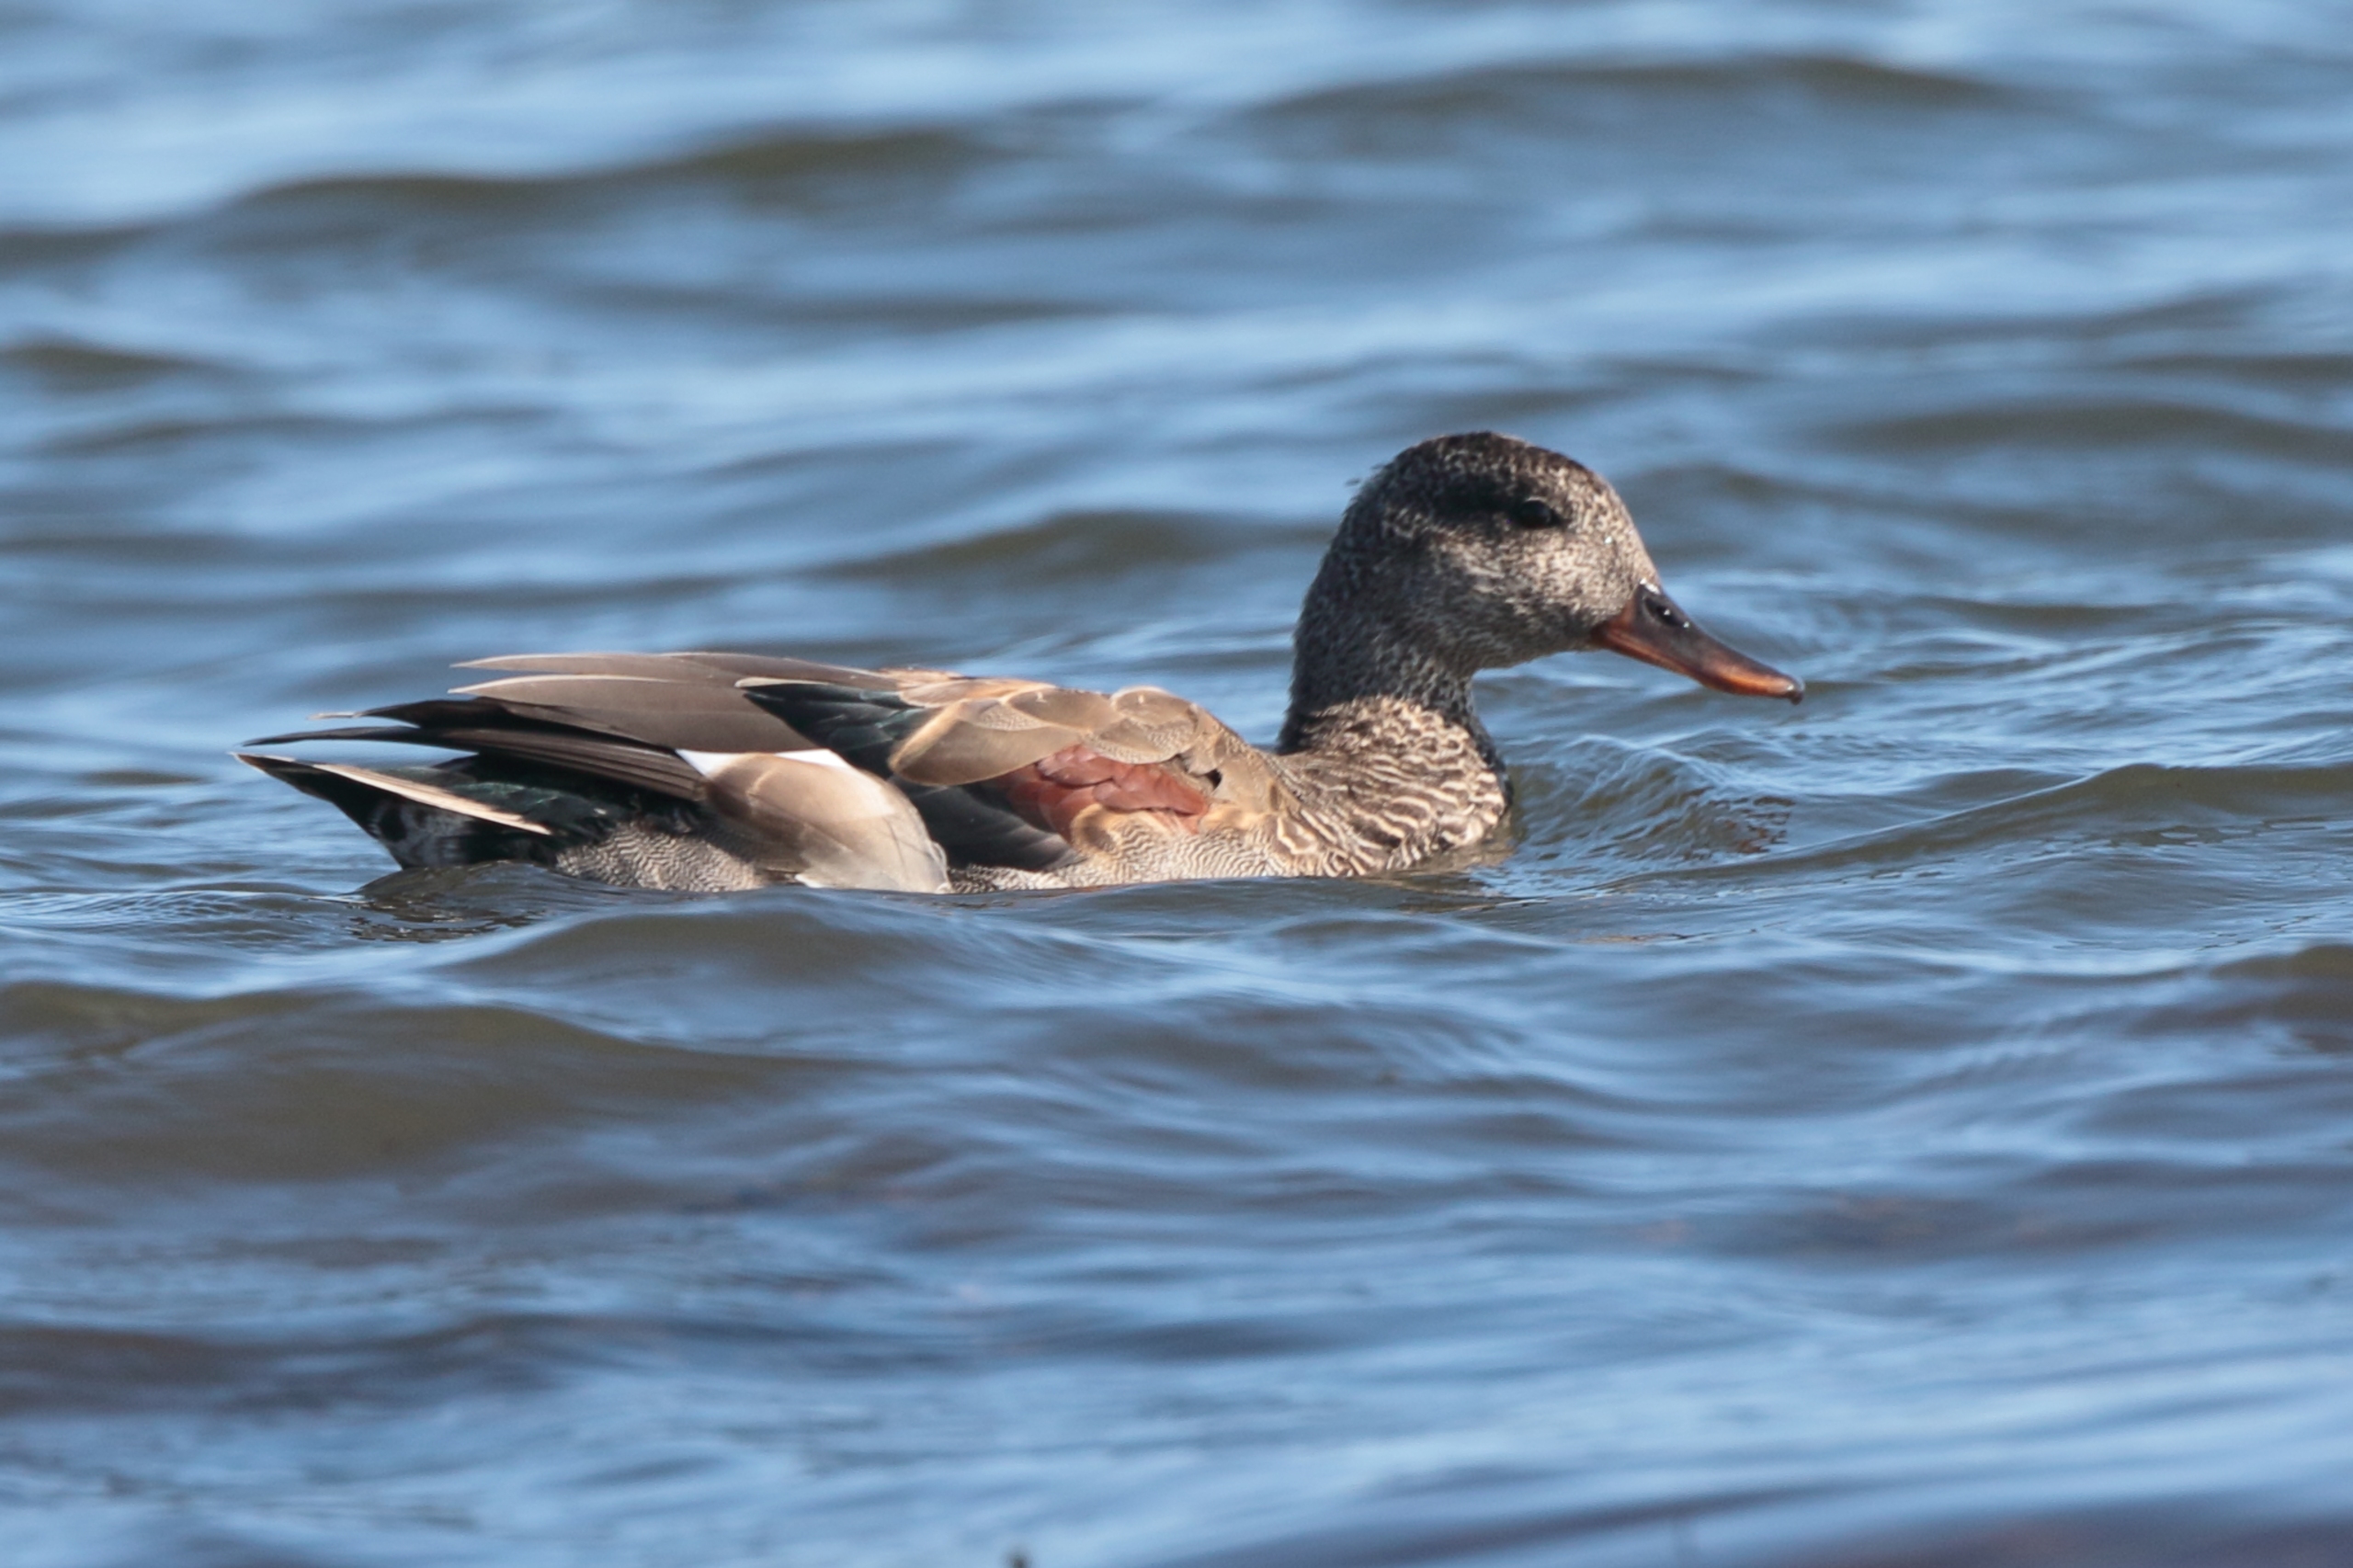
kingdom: Animalia
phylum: Chordata
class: Aves
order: Anseriformes
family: Anatidae
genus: Mareca
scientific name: Mareca strepera
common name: Knarand
